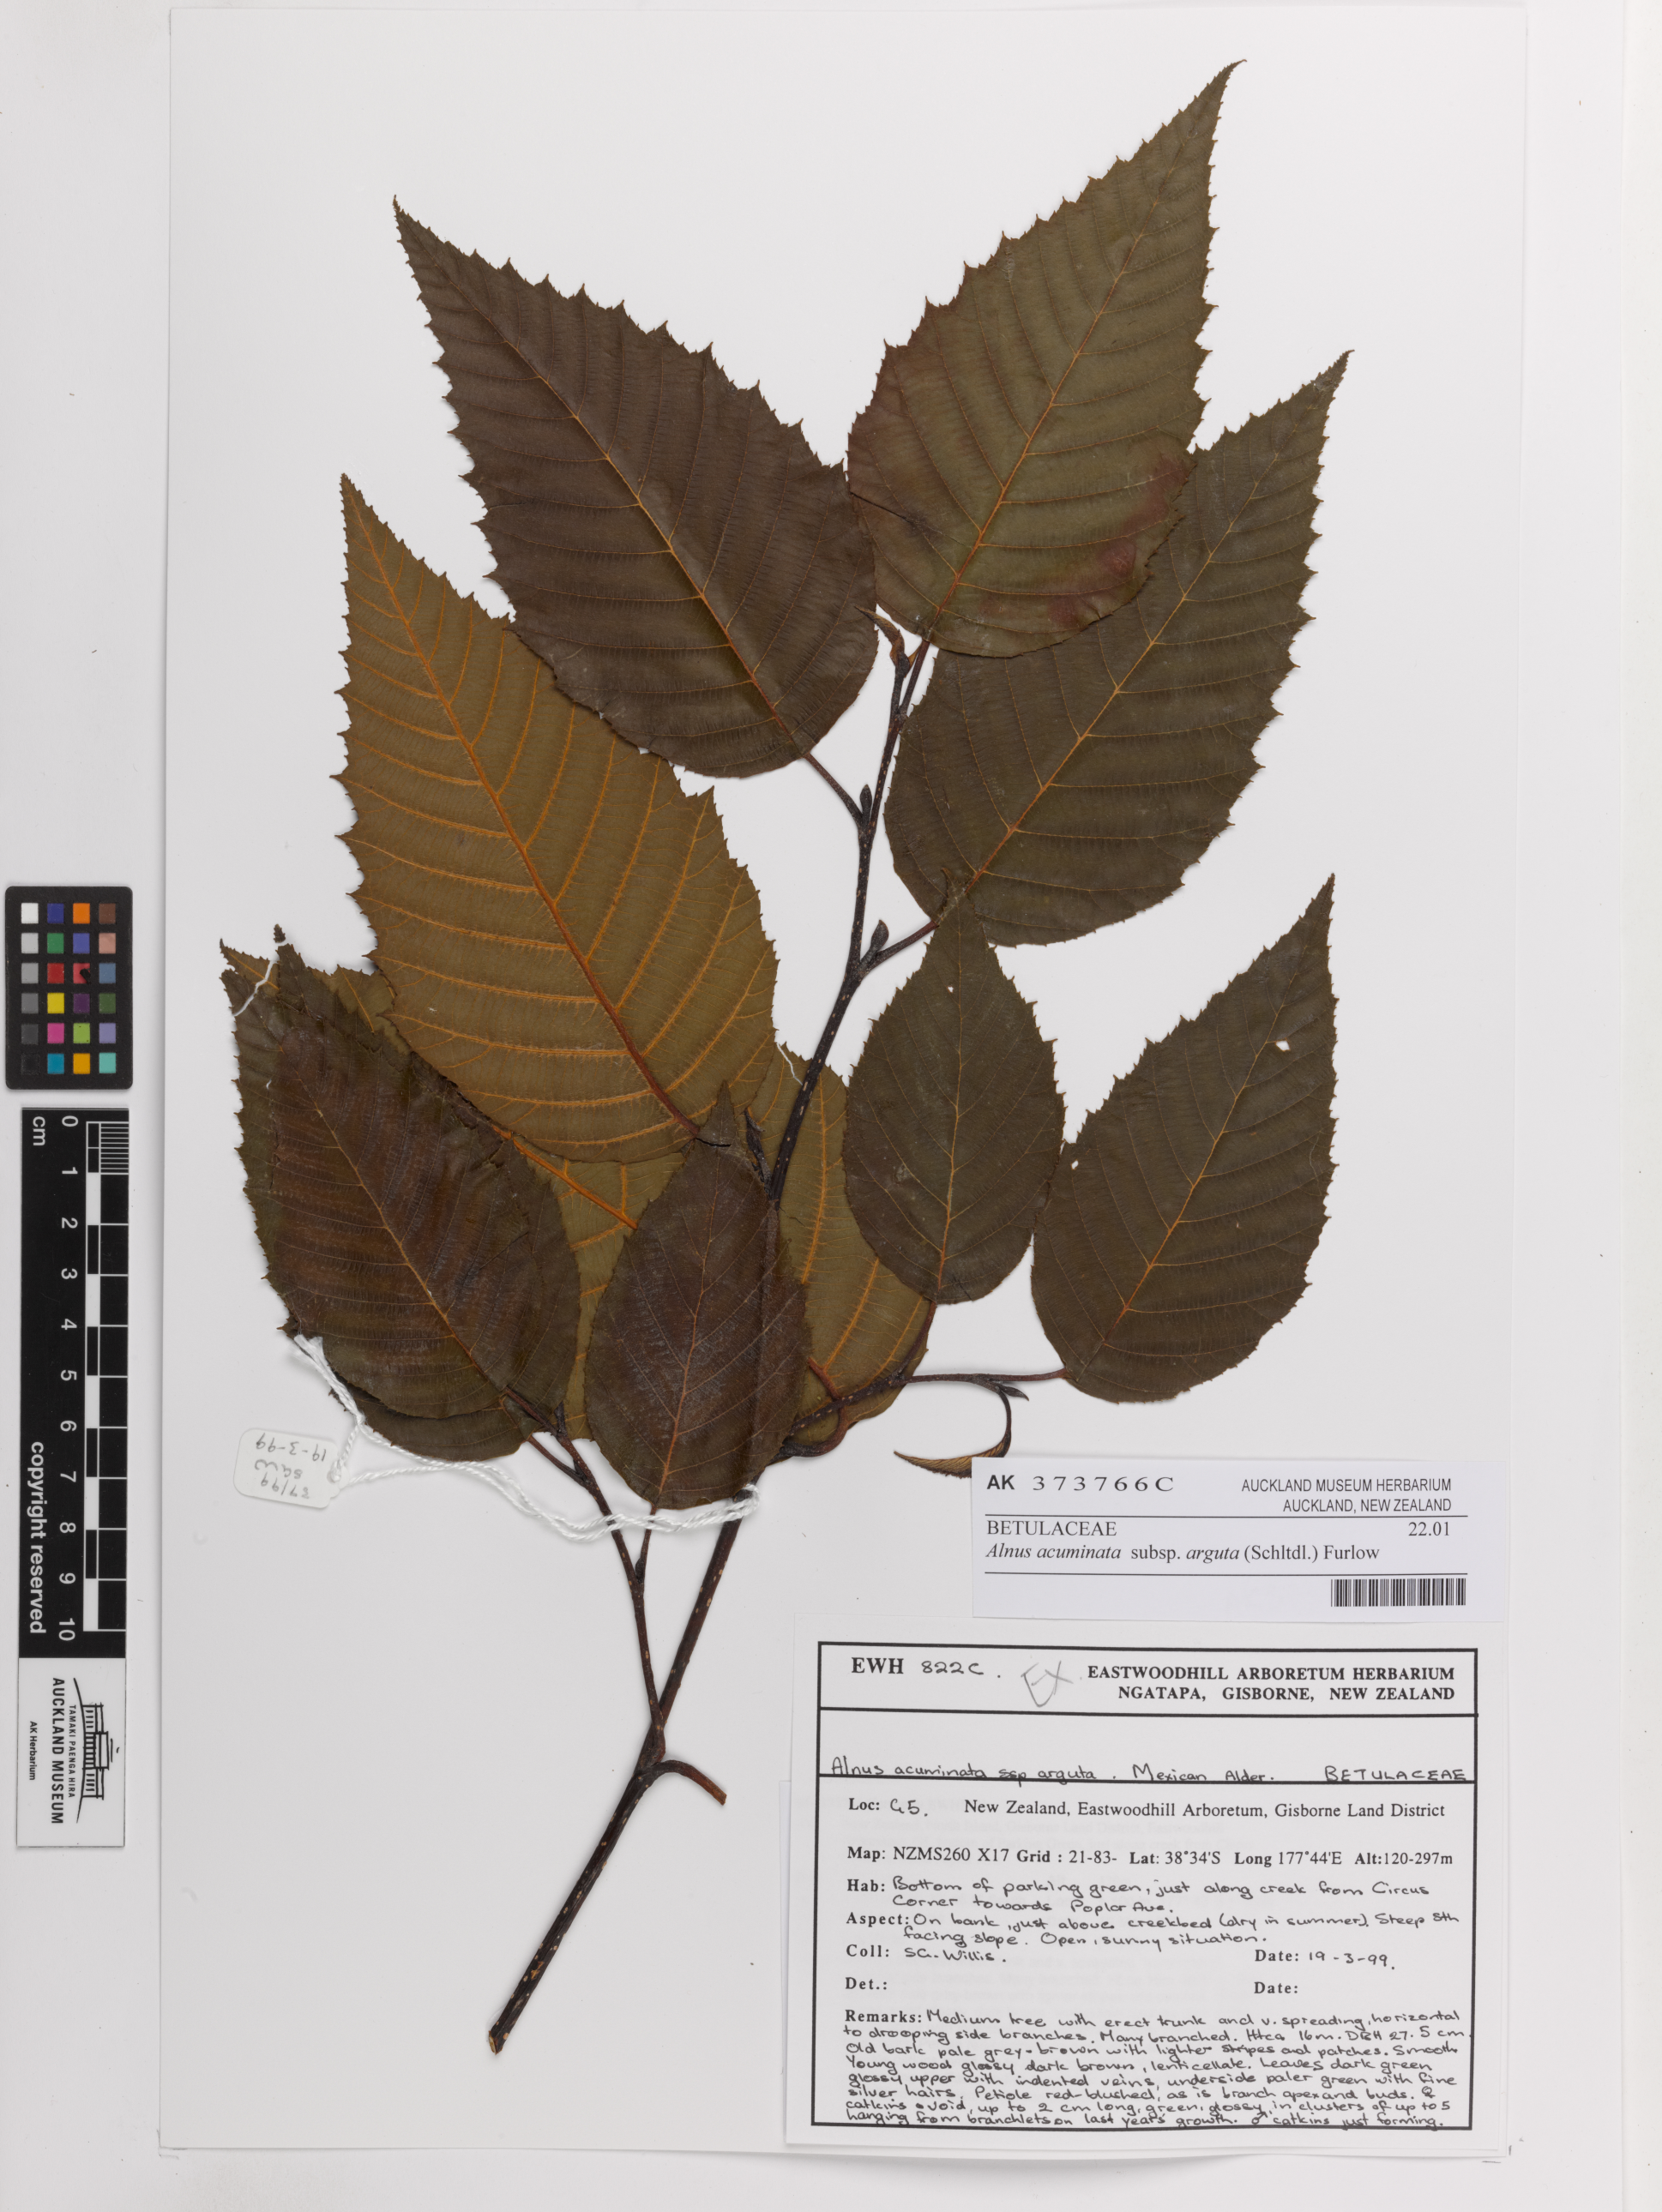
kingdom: Plantae
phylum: Tracheophyta
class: Magnoliopsida
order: Fagales
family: Betulaceae
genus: Alnus
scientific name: Alnus acuminata
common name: Alder
